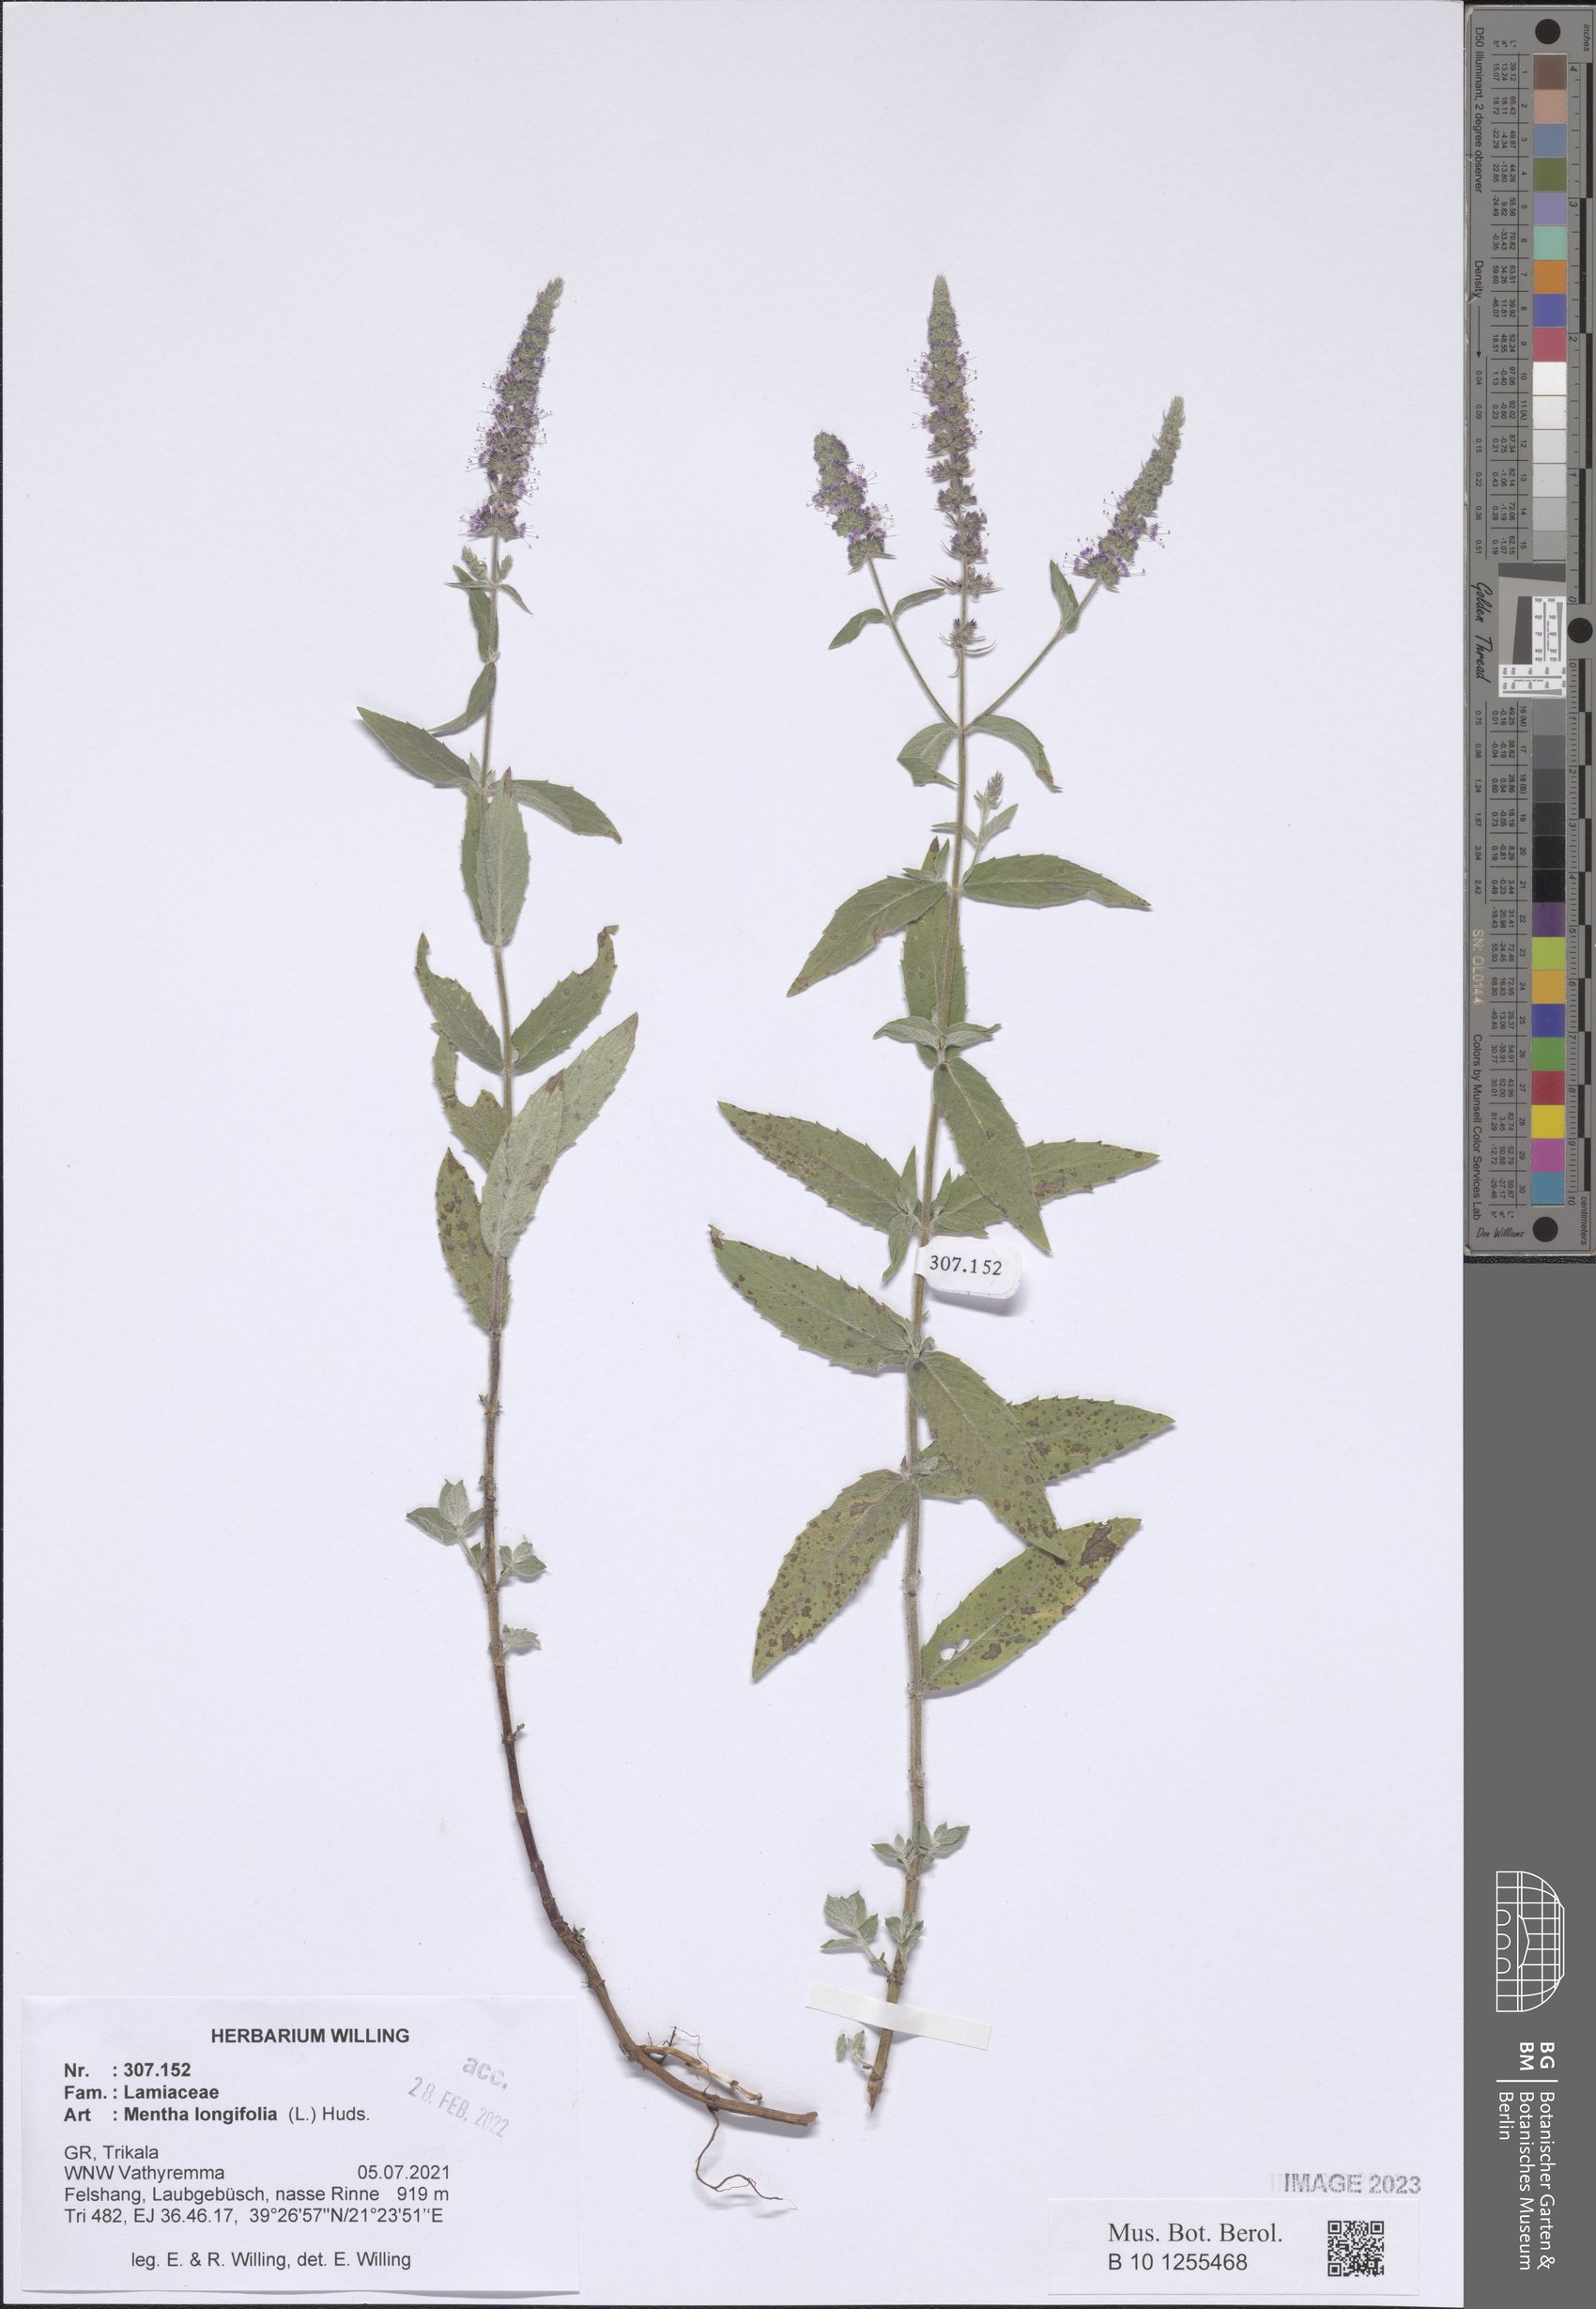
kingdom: Plantae
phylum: Tracheophyta
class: Magnoliopsida
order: Lamiales
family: Lamiaceae
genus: Mentha
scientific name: Mentha longifolia
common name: Horse mint
